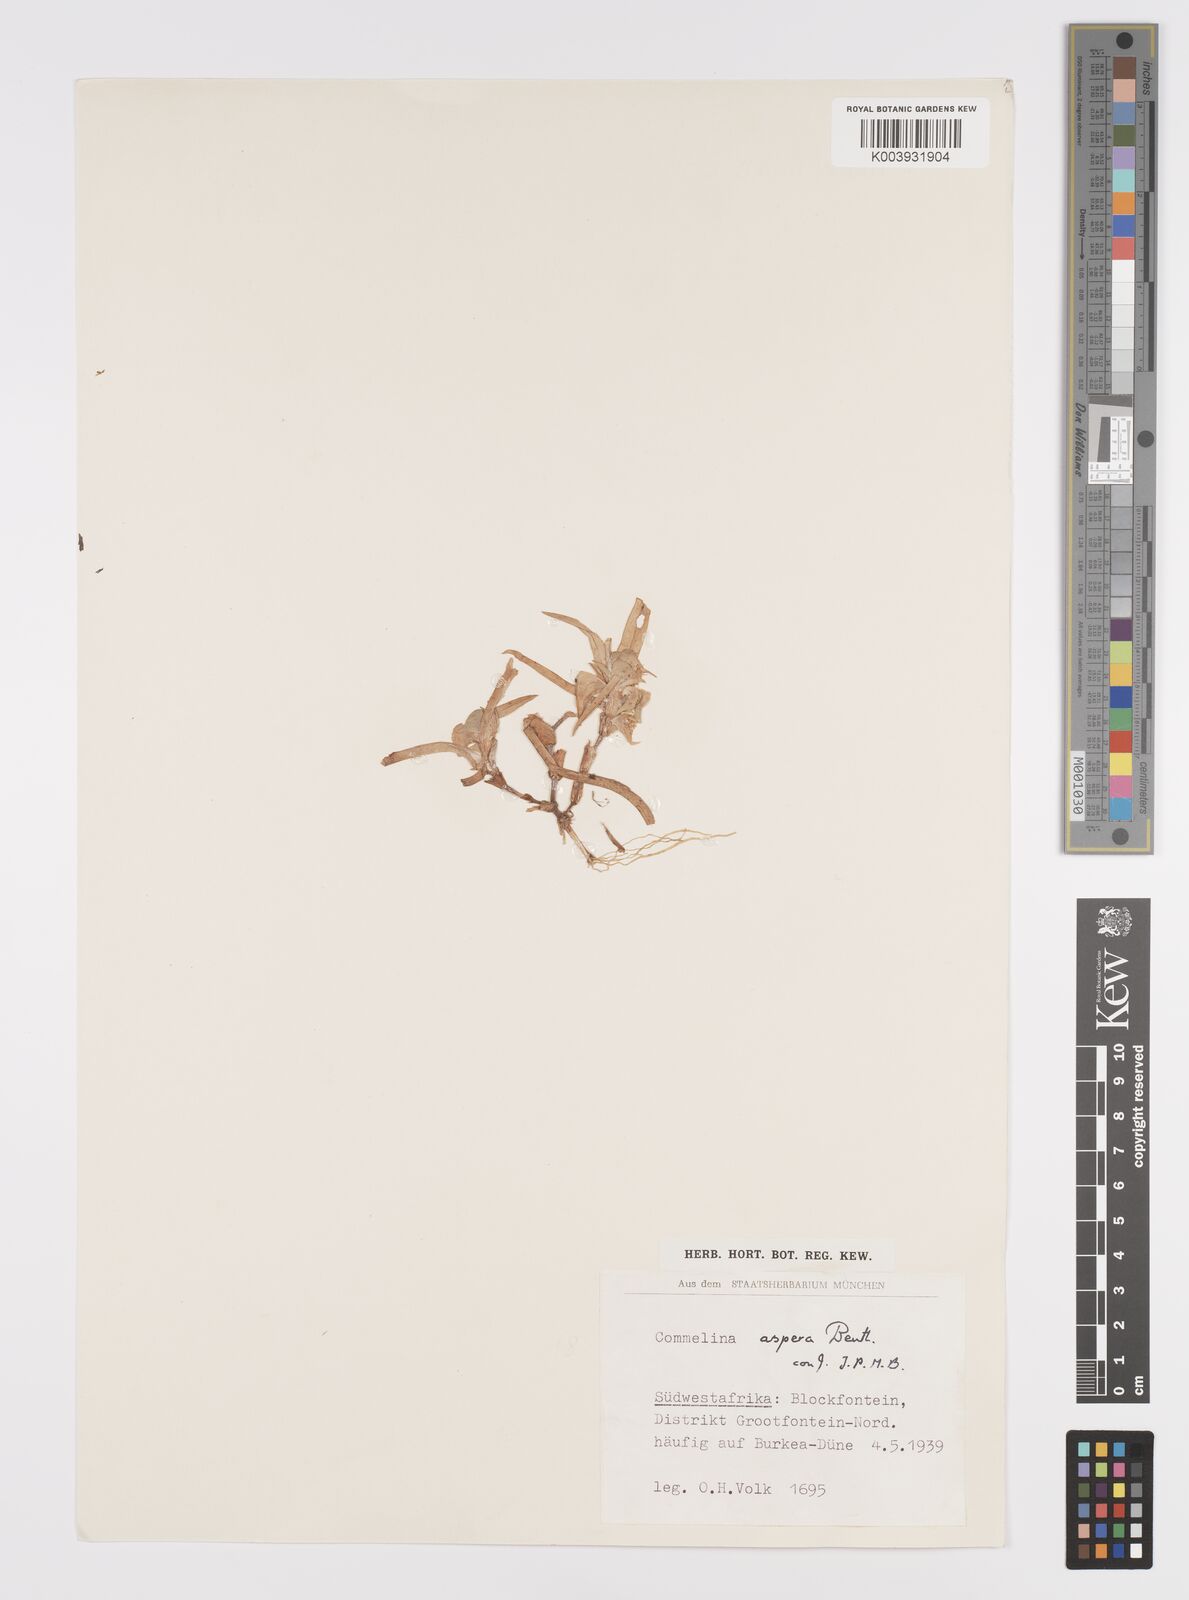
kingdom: Plantae
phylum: Tracheophyta
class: Liliopsida
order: Commelinales
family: Commelinaceae
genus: Commelina
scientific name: Commelina aspera
